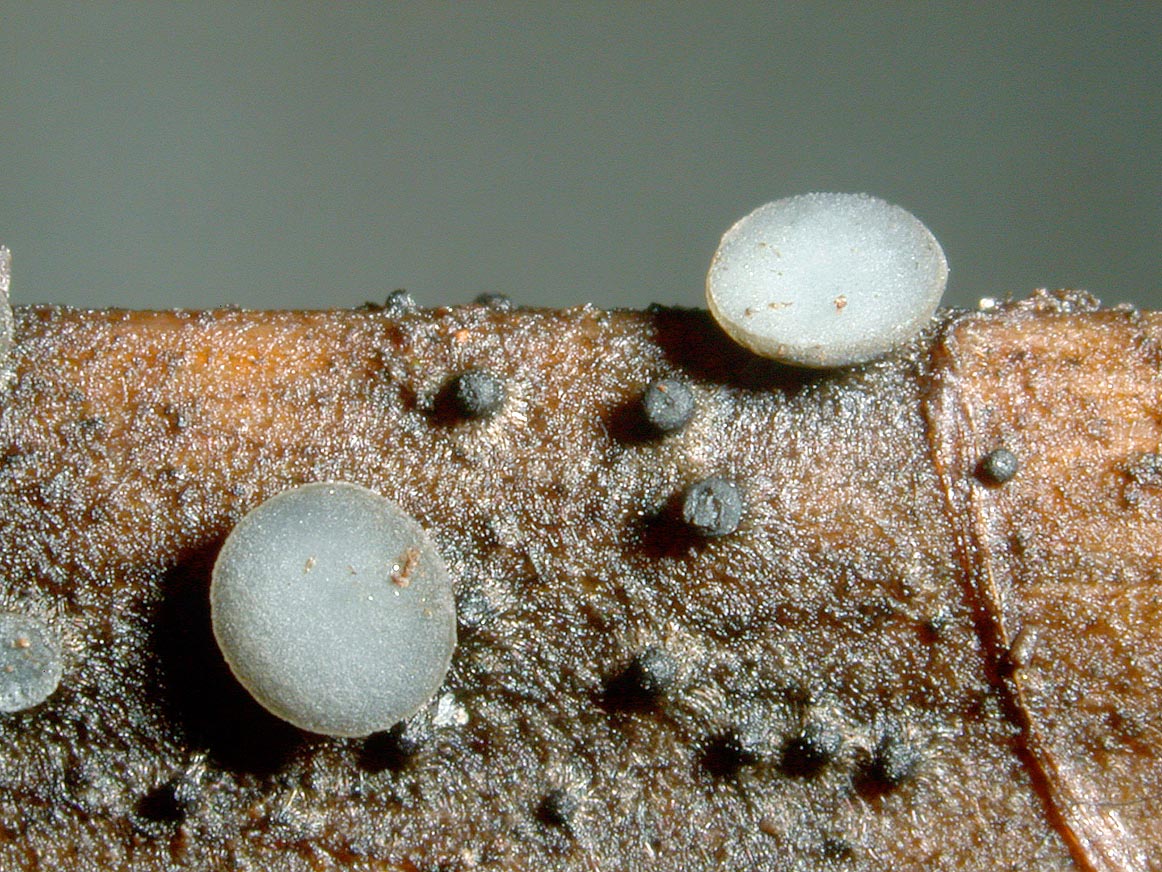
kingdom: Fungi
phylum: Ascomycota
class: Leotiomycetes
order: Helotiales
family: Dermateaceae
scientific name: Dermateaceae
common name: gråskivefamilien
